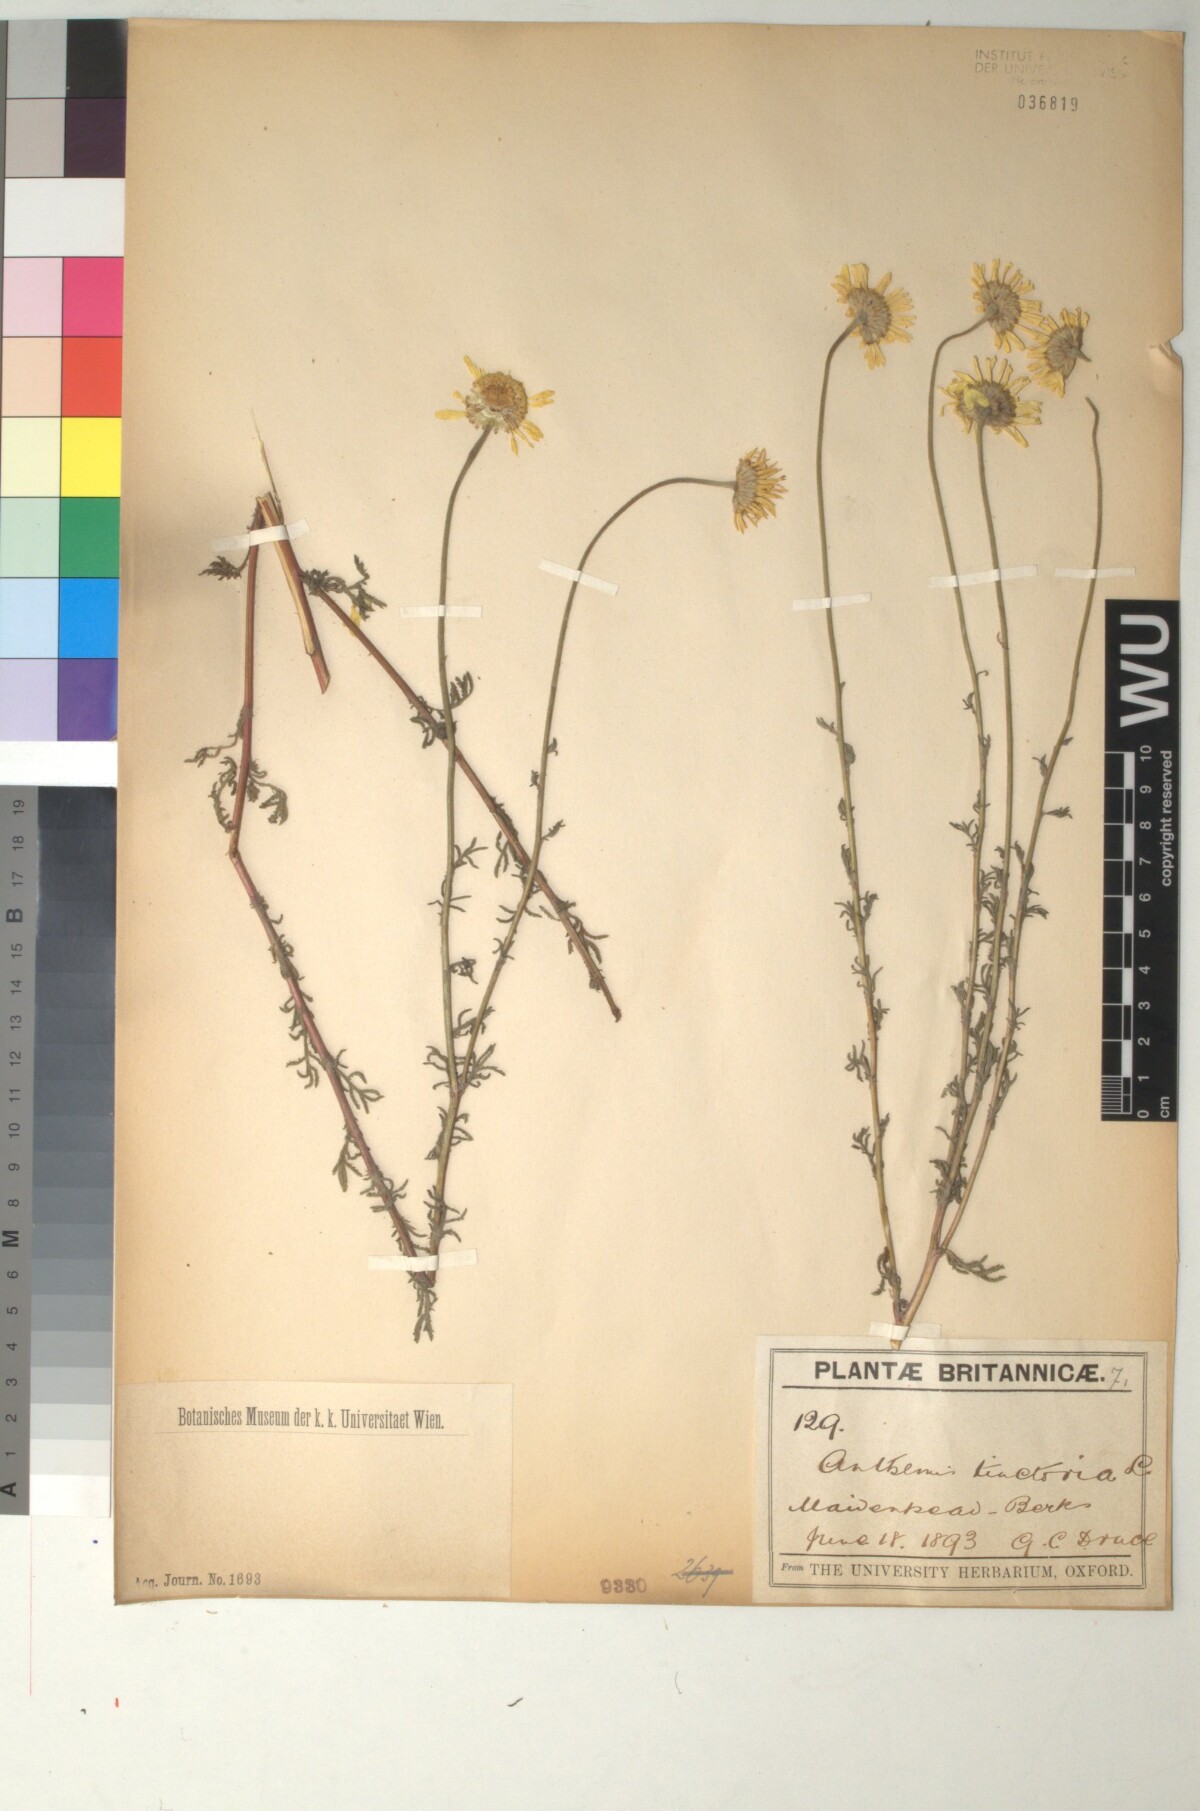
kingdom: Plantae
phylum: Tracheophyta
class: Magnoliopsida
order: Asterales
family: Asteraceae
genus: Cota
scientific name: Cota tinctoria
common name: Golden chamomile
